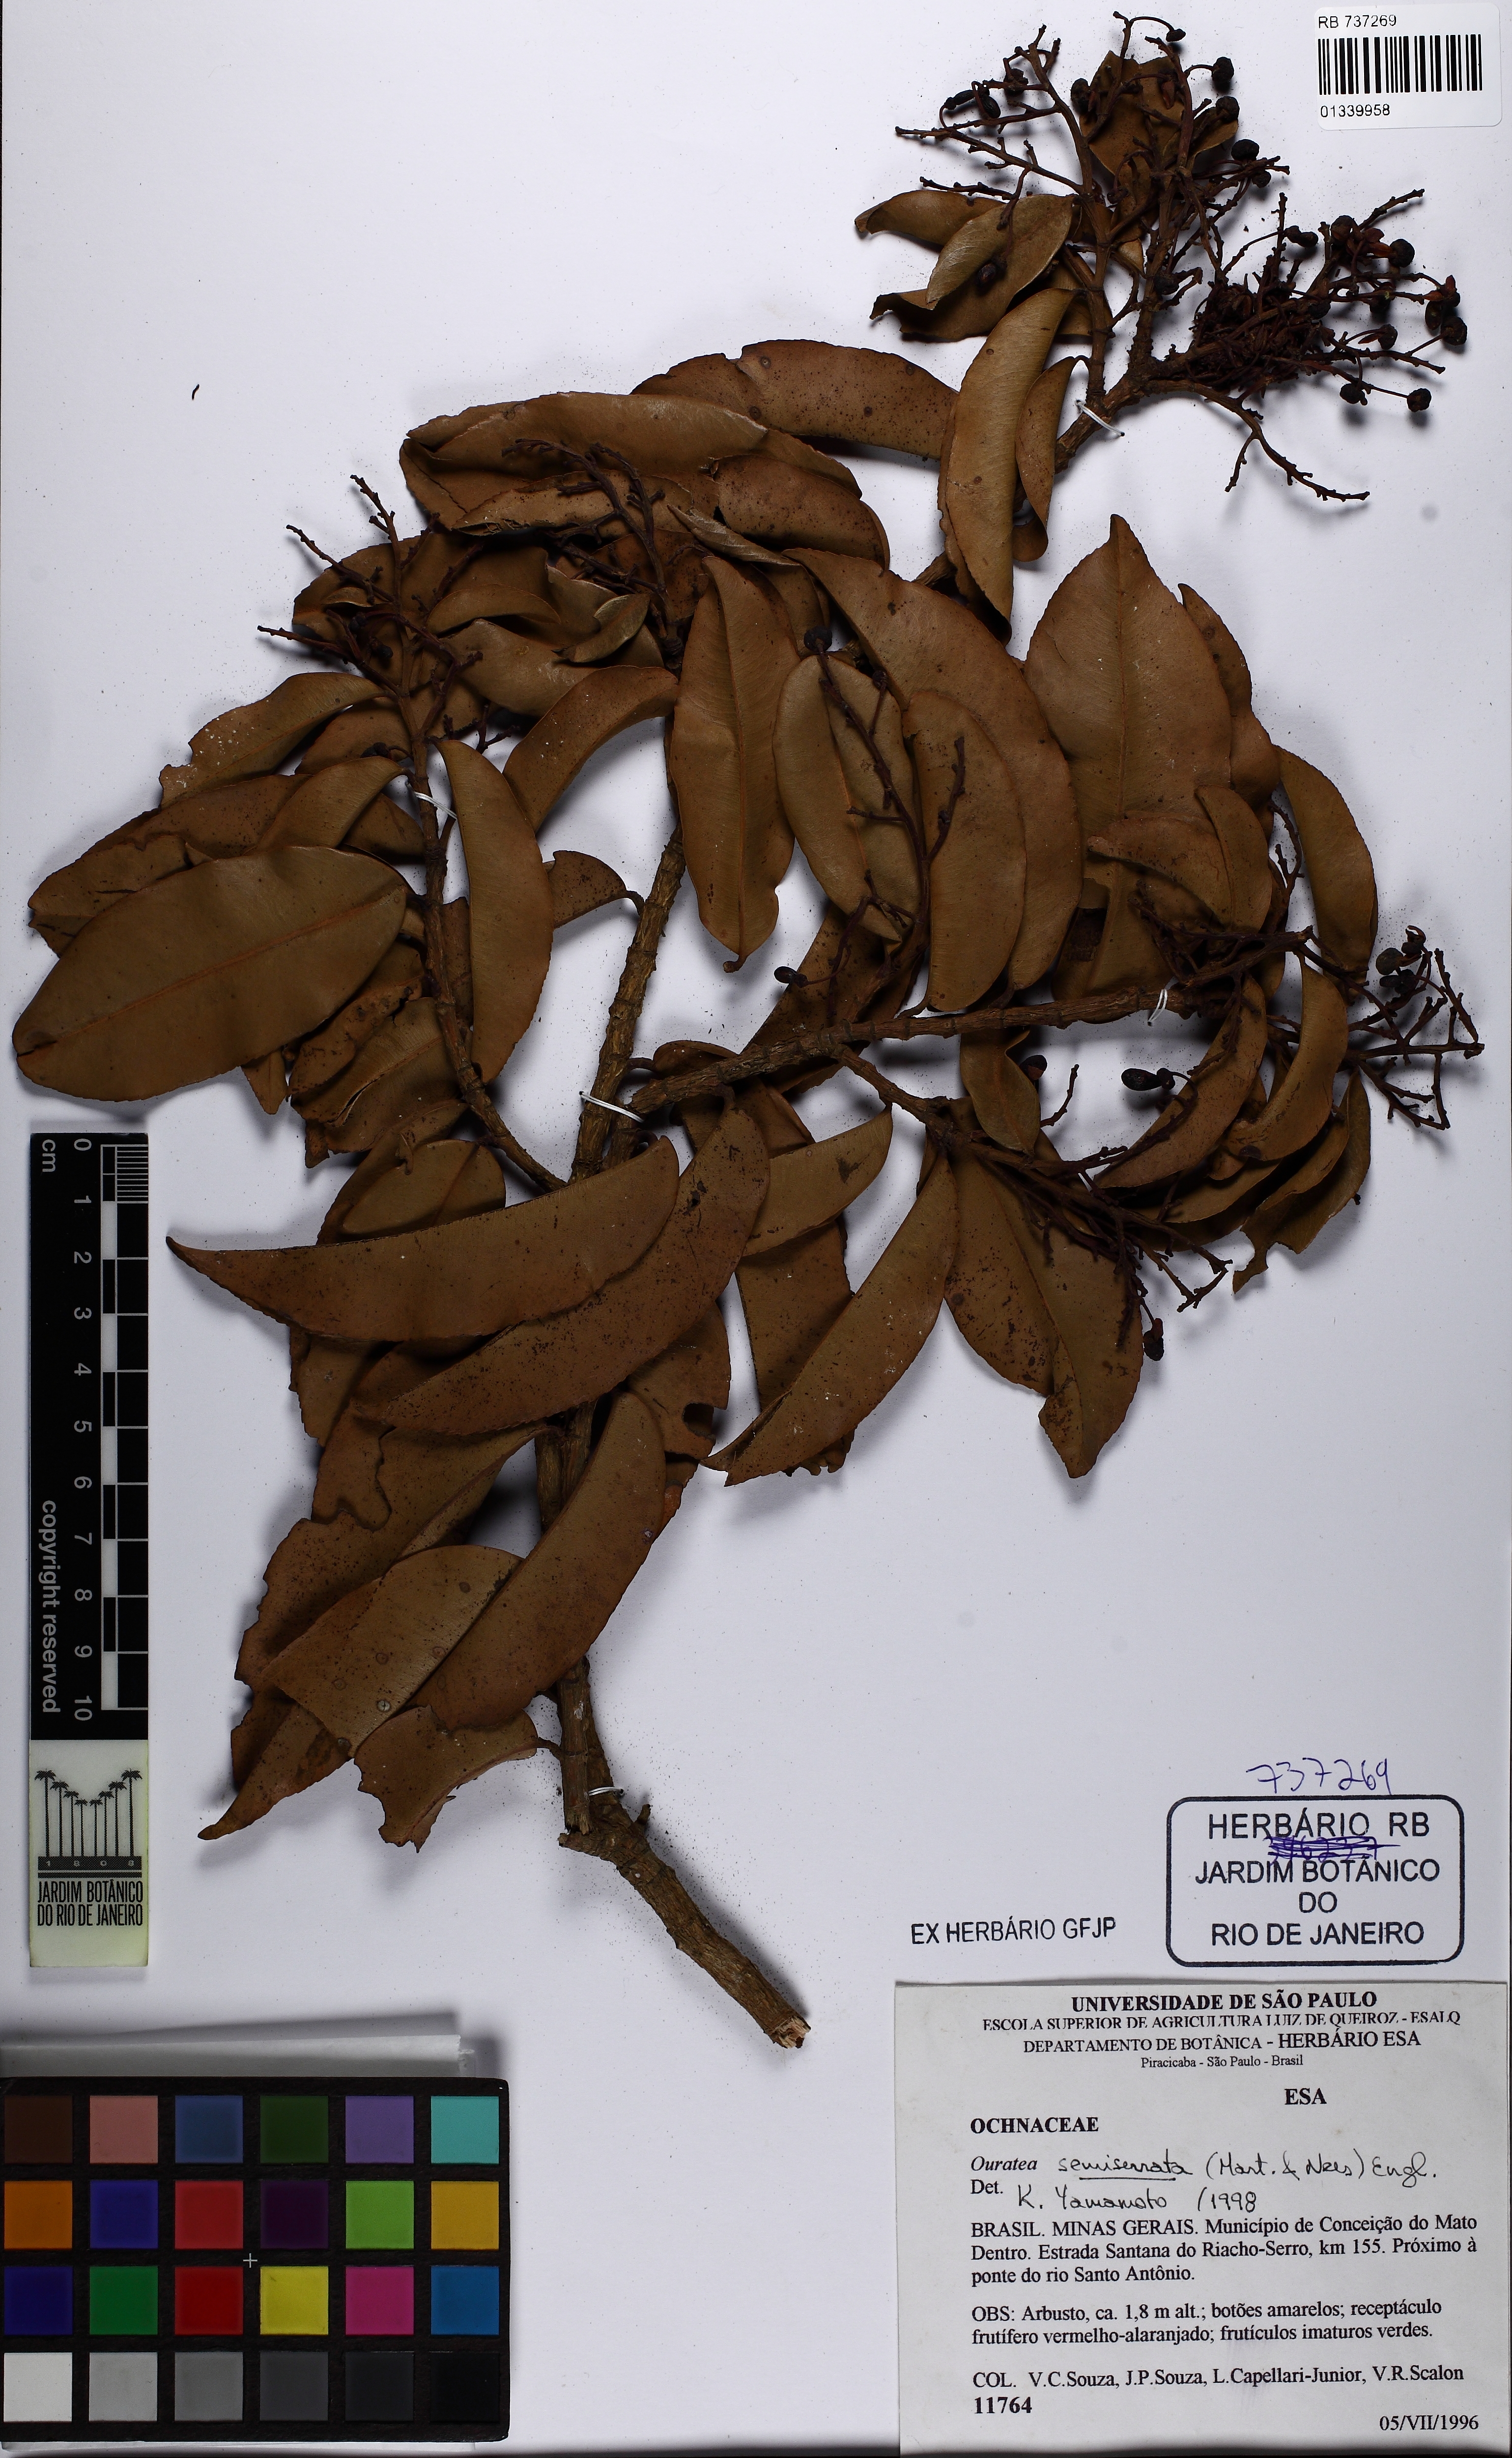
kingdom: Plantae
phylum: Tracheophyta
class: Magnoliopsida
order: Malpighiales
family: Ochnaceae
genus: Ouratea
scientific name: Ouratea semiserrata
